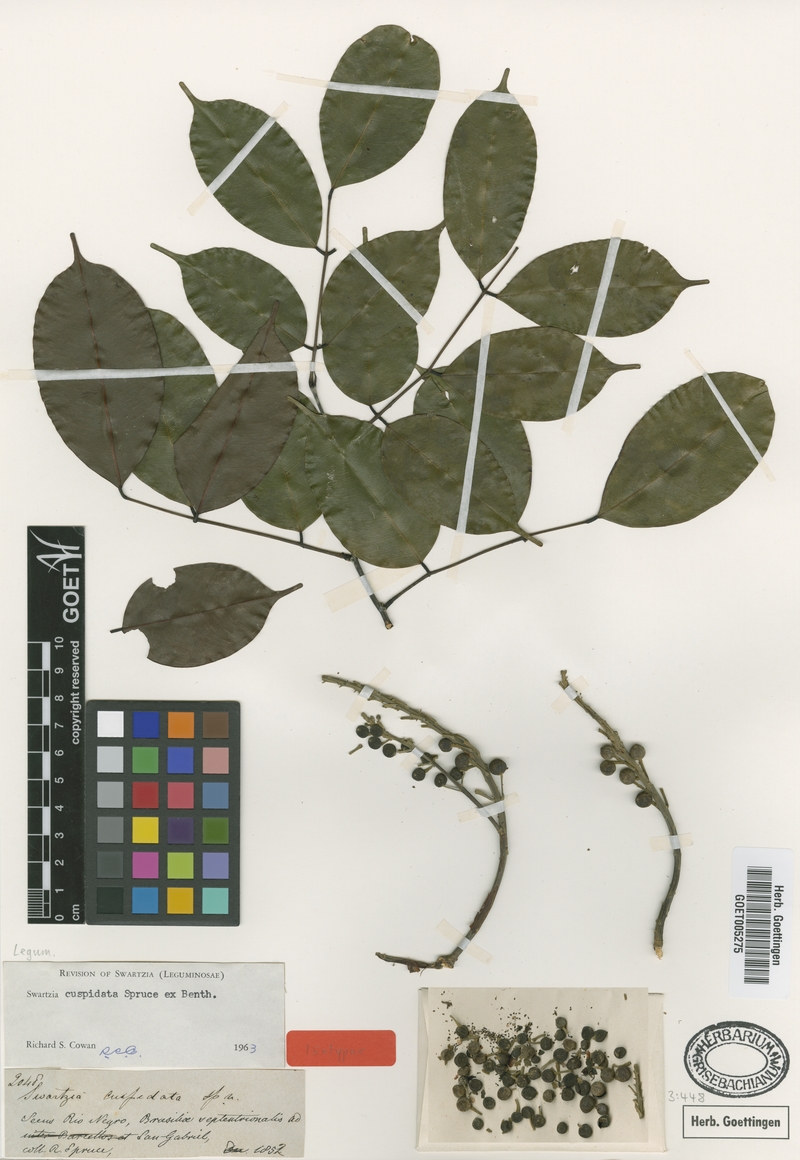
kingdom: Plantae
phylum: Tracheophyta
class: Magnoliopsida
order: Fabales
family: Fabaceae
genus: Swartzia
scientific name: Swartzia cuspidata
